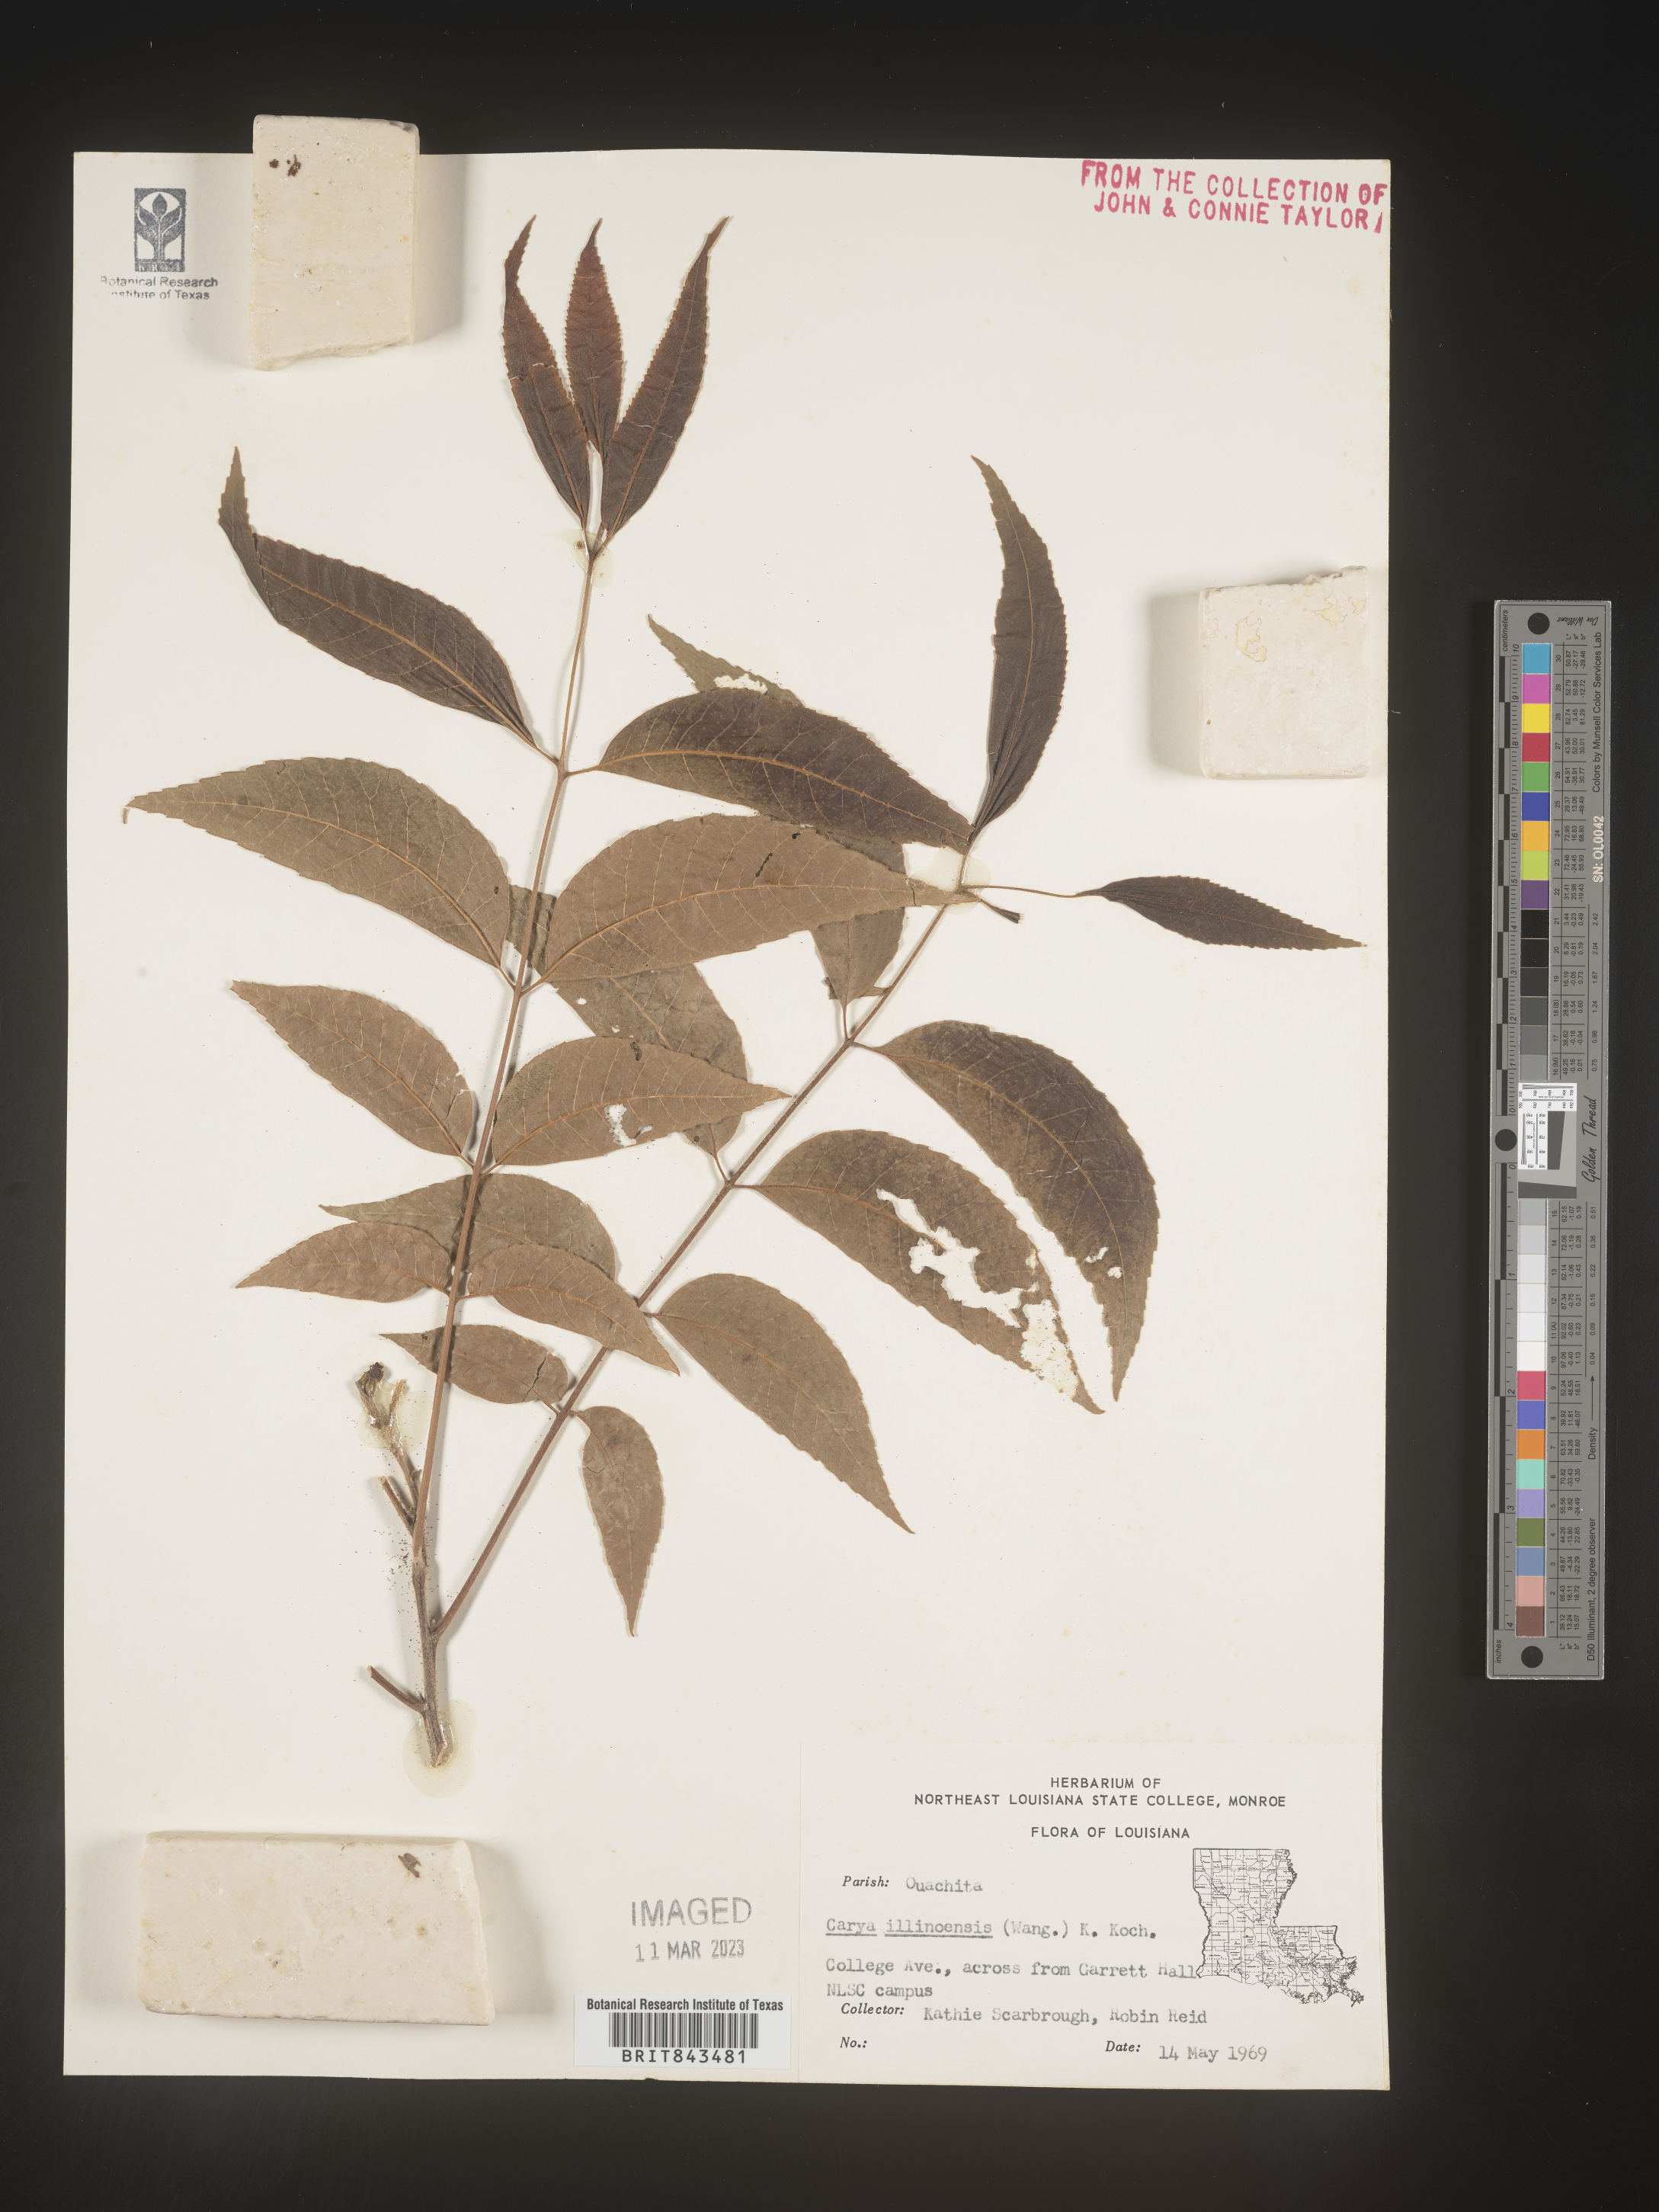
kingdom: Plantae
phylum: Tracheophyta
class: Magnoliopsida
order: Fagales
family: Juglandaceae
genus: Carya
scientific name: Carya illinoinensis
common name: Pecan
